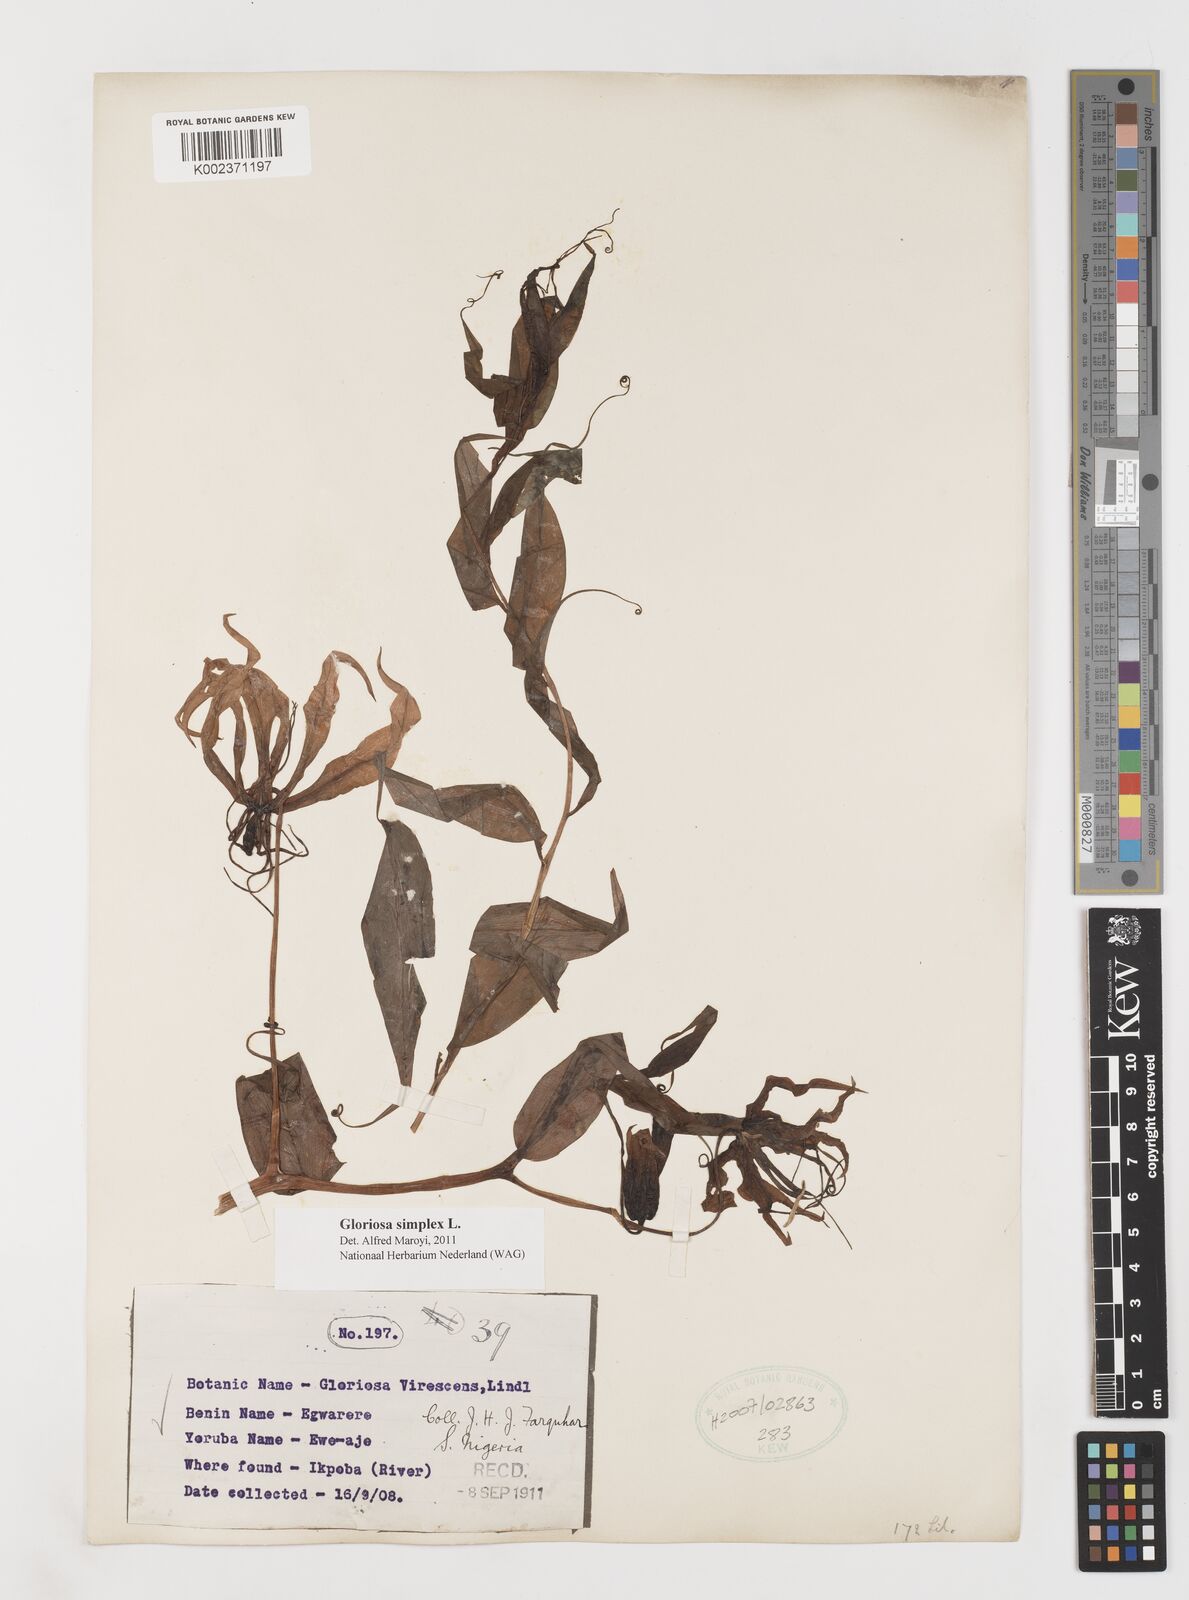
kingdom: Plantae
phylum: Tracheophyta
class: Liliopsida
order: Liliales
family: Colchicaceae
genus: Gloriosa
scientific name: Gloriosa simplex
